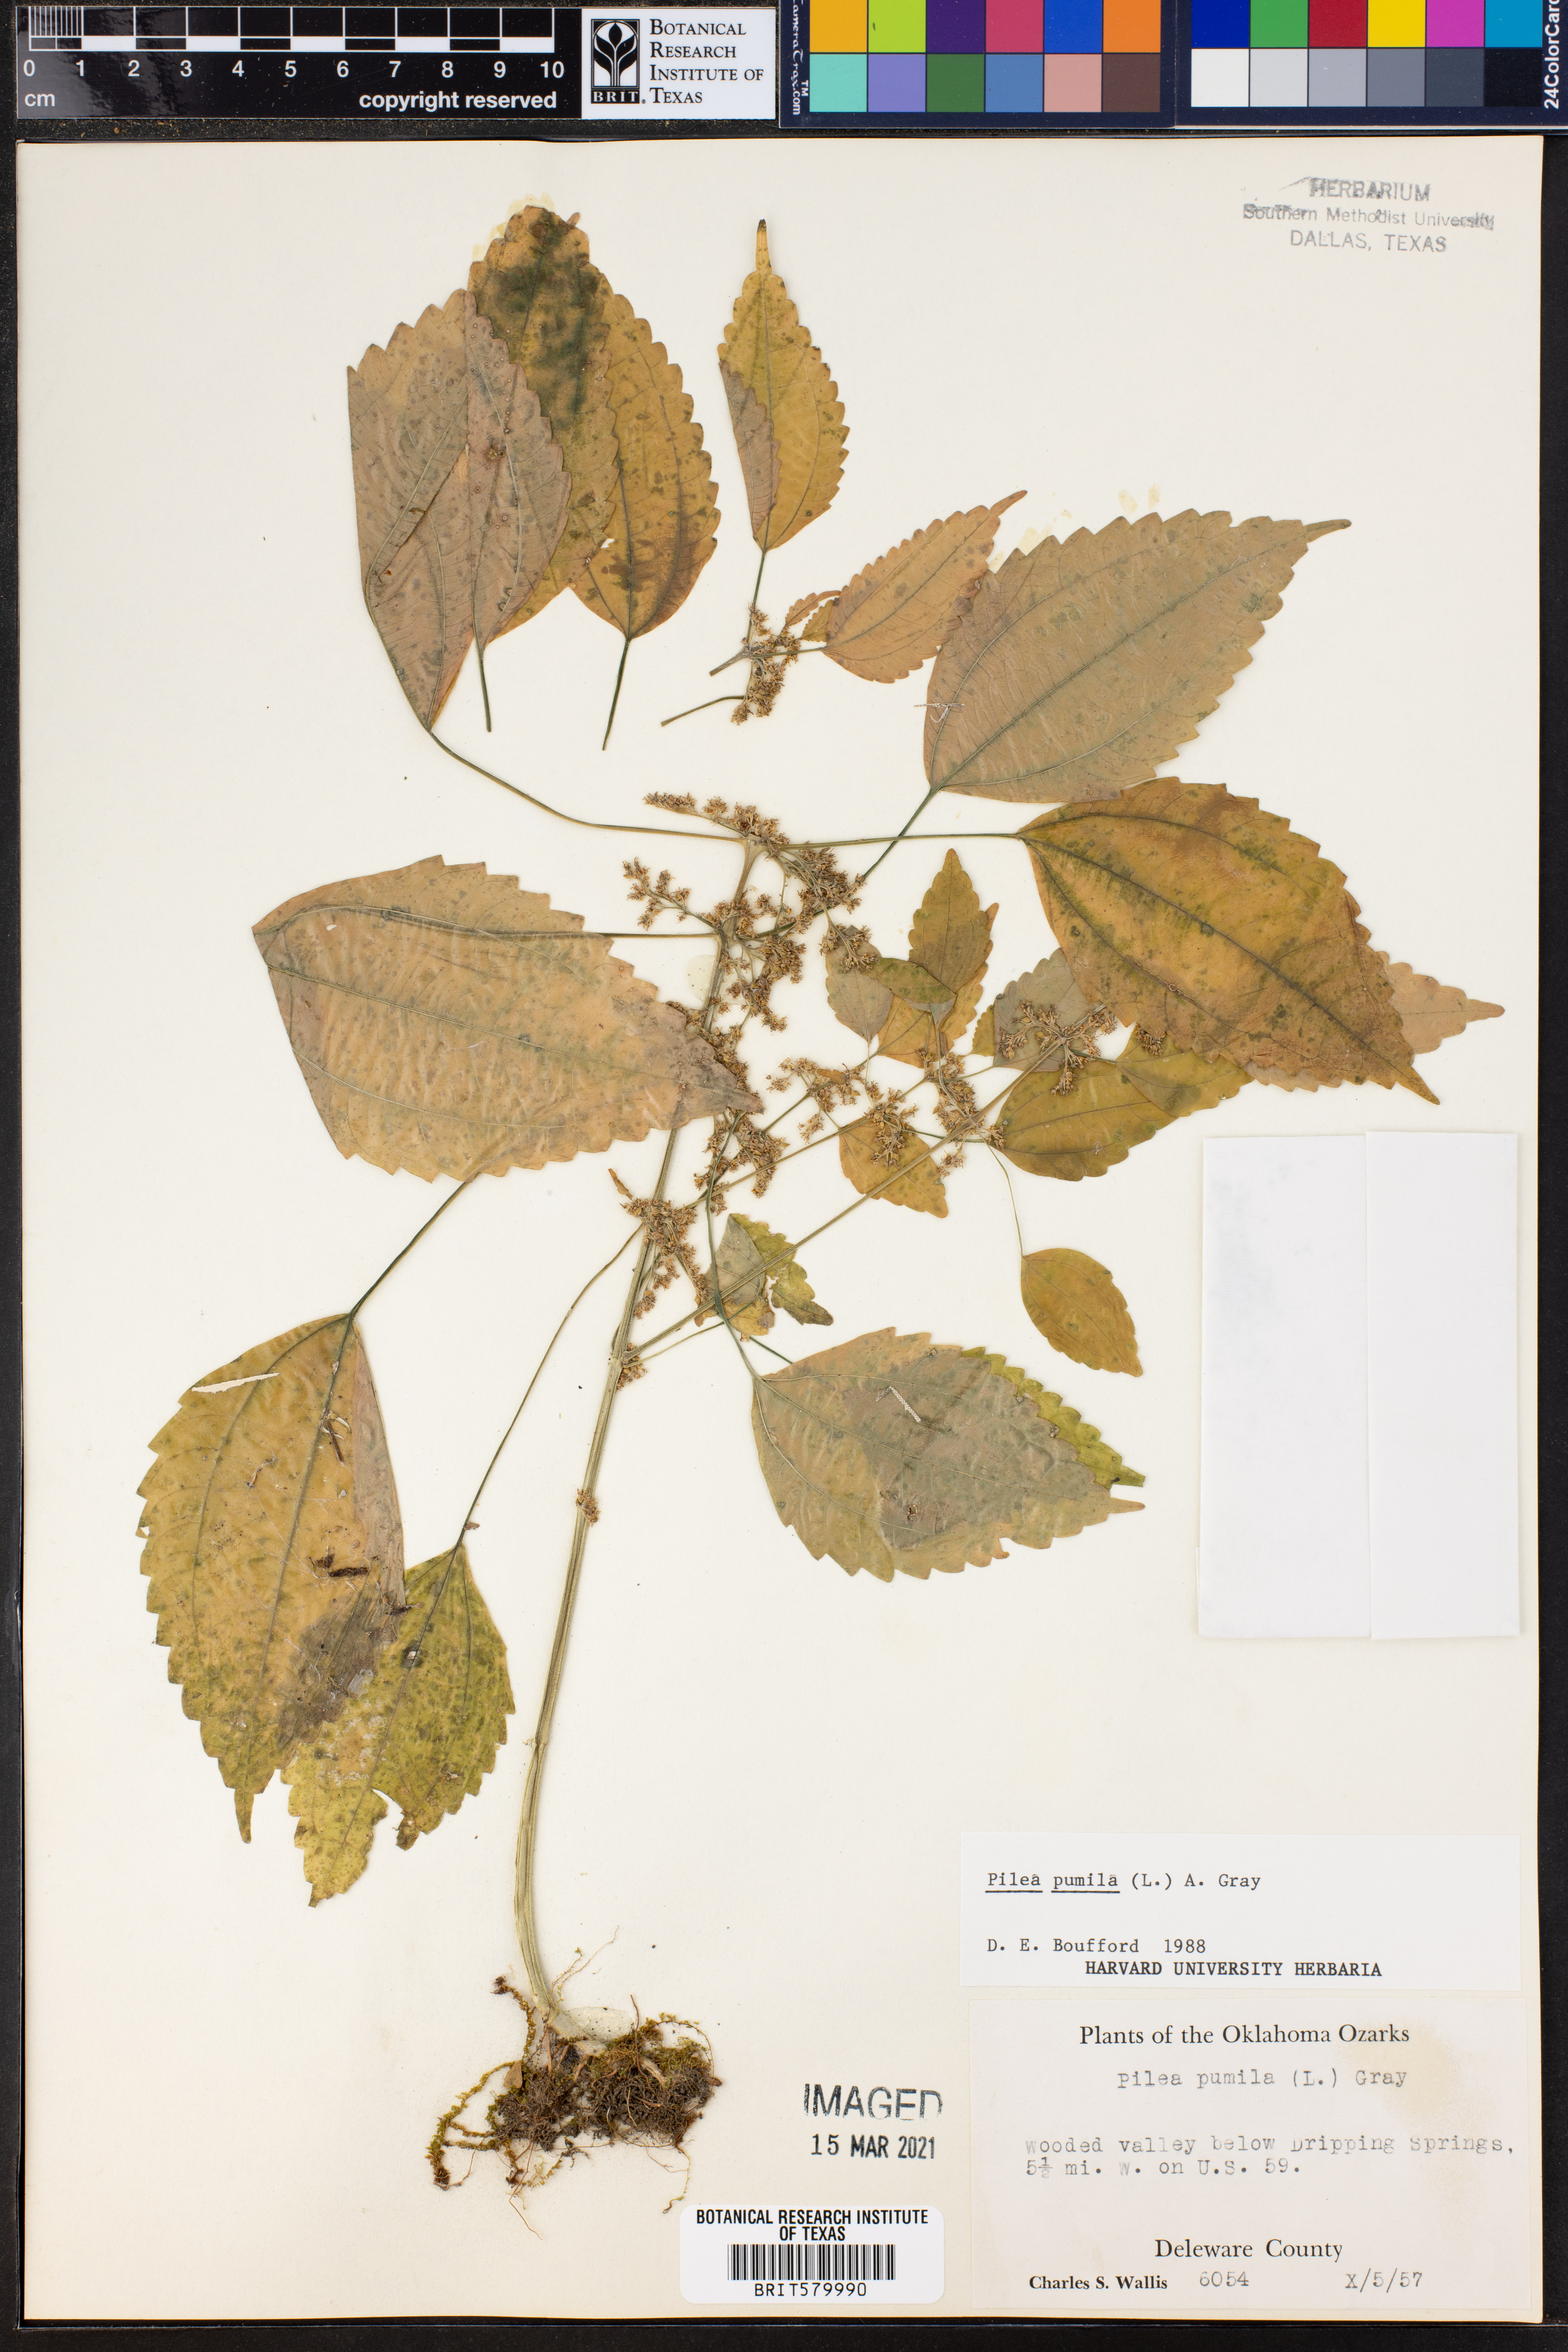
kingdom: Plantae
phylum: Tracheophyta
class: Magnoliopsida
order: Rosales
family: Urticaceae
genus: Pilea
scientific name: Pilea pumila
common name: Clearweed
